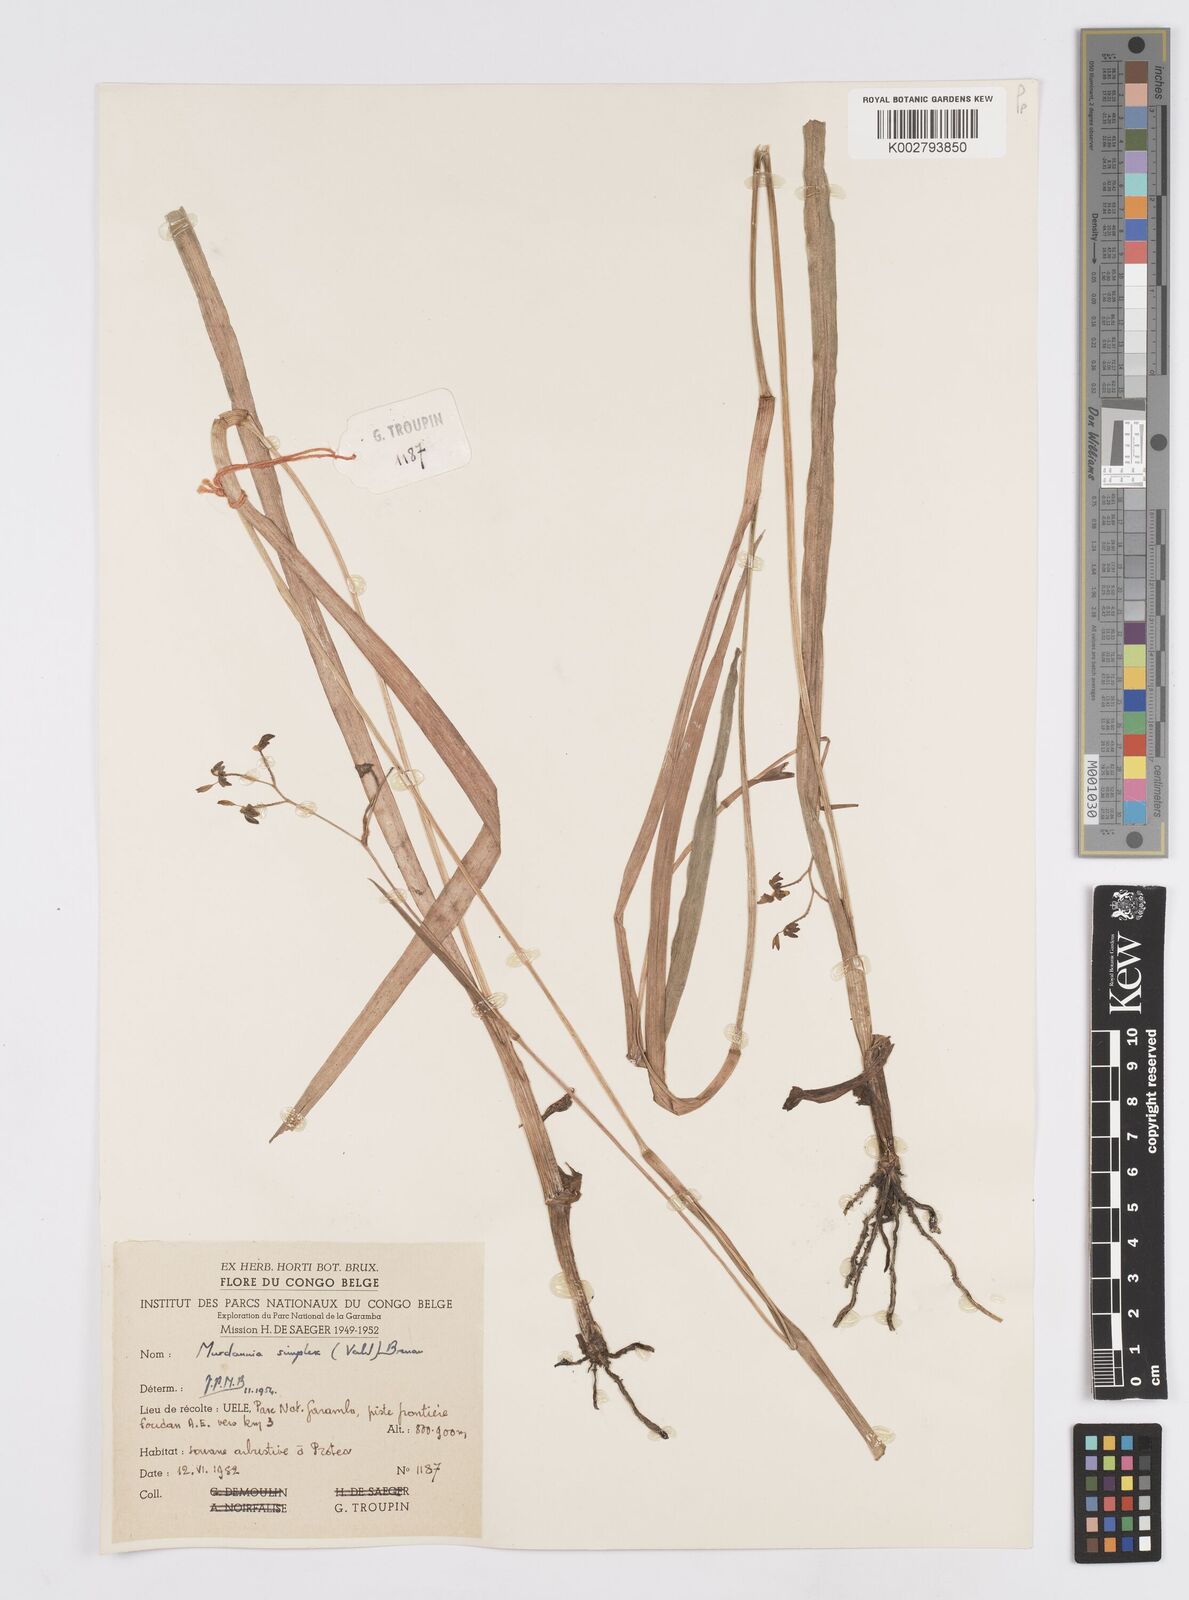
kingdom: Plantae
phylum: Tracheophyta
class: Liliopsida
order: Commelinales
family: Commelinaceae
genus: Murdannia
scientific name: Murdannia simplex
